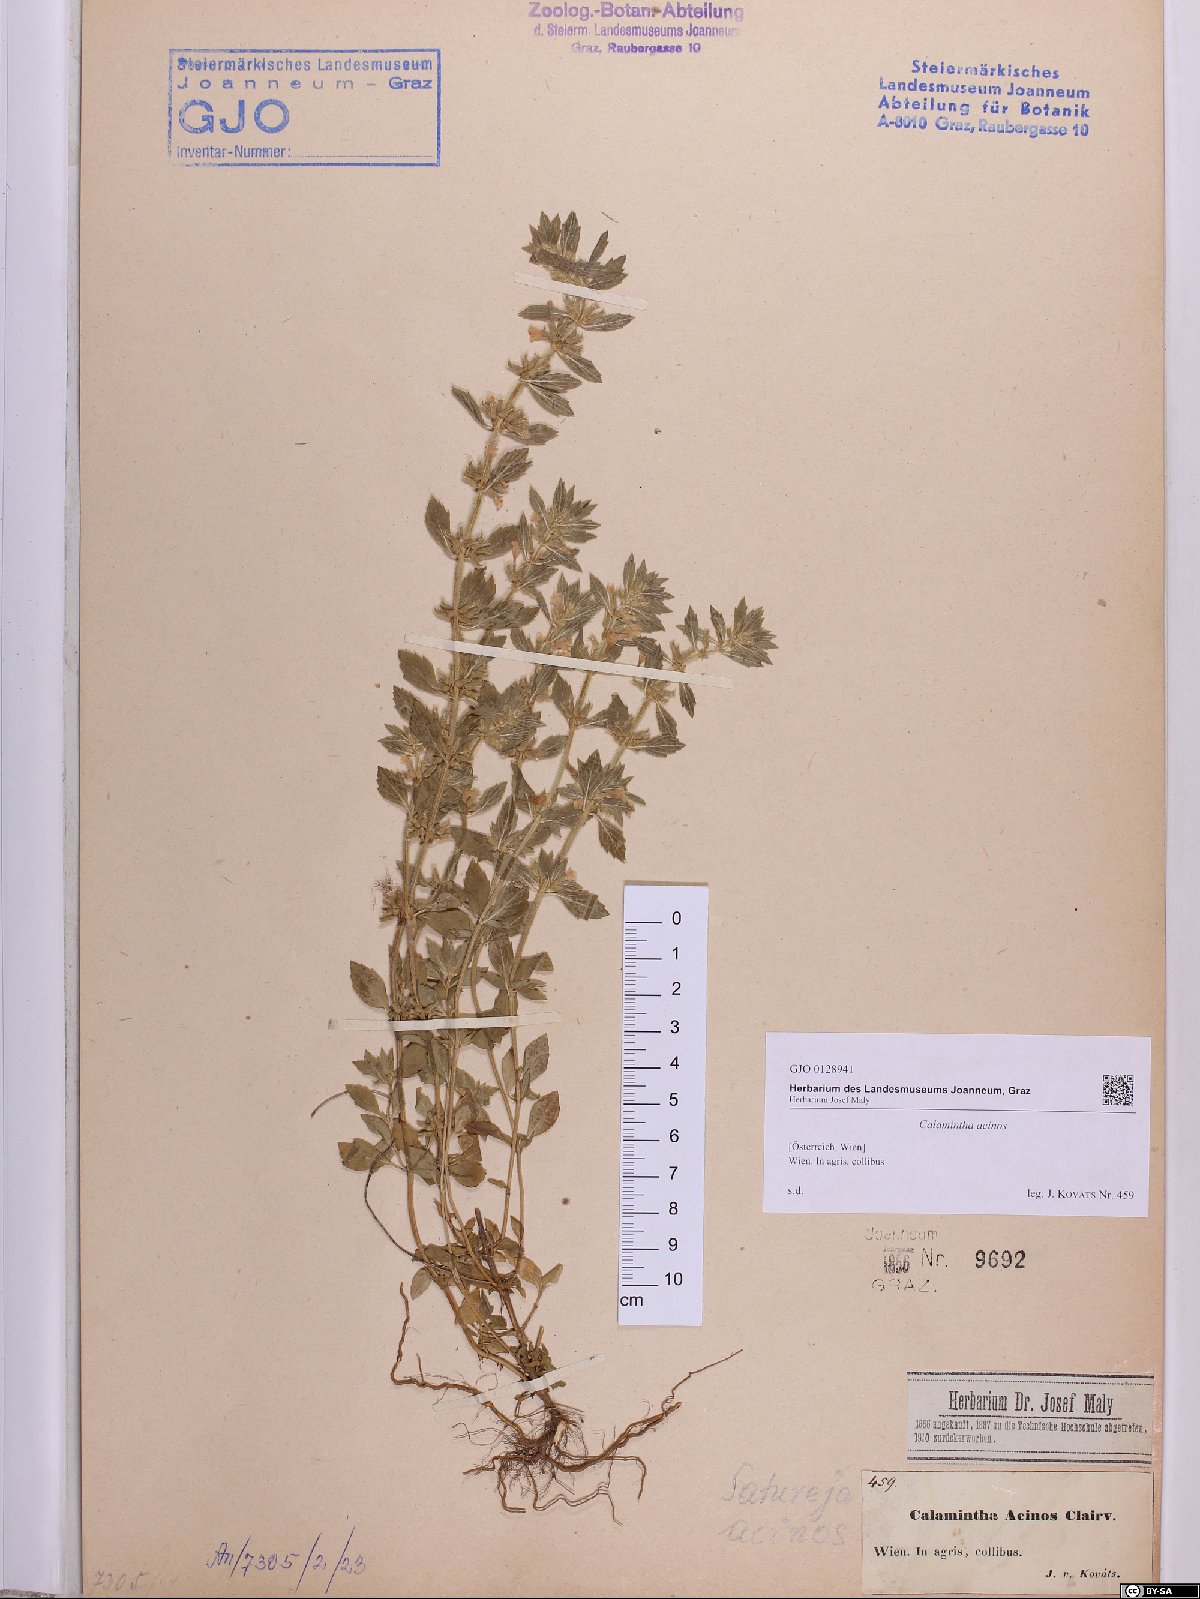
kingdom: Plantae
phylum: Tracheophyta
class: Magnoliopsida
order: Lamiales
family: Lamiaceae
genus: Clinopodium
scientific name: Clinopodium acinos
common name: Basil thyme
